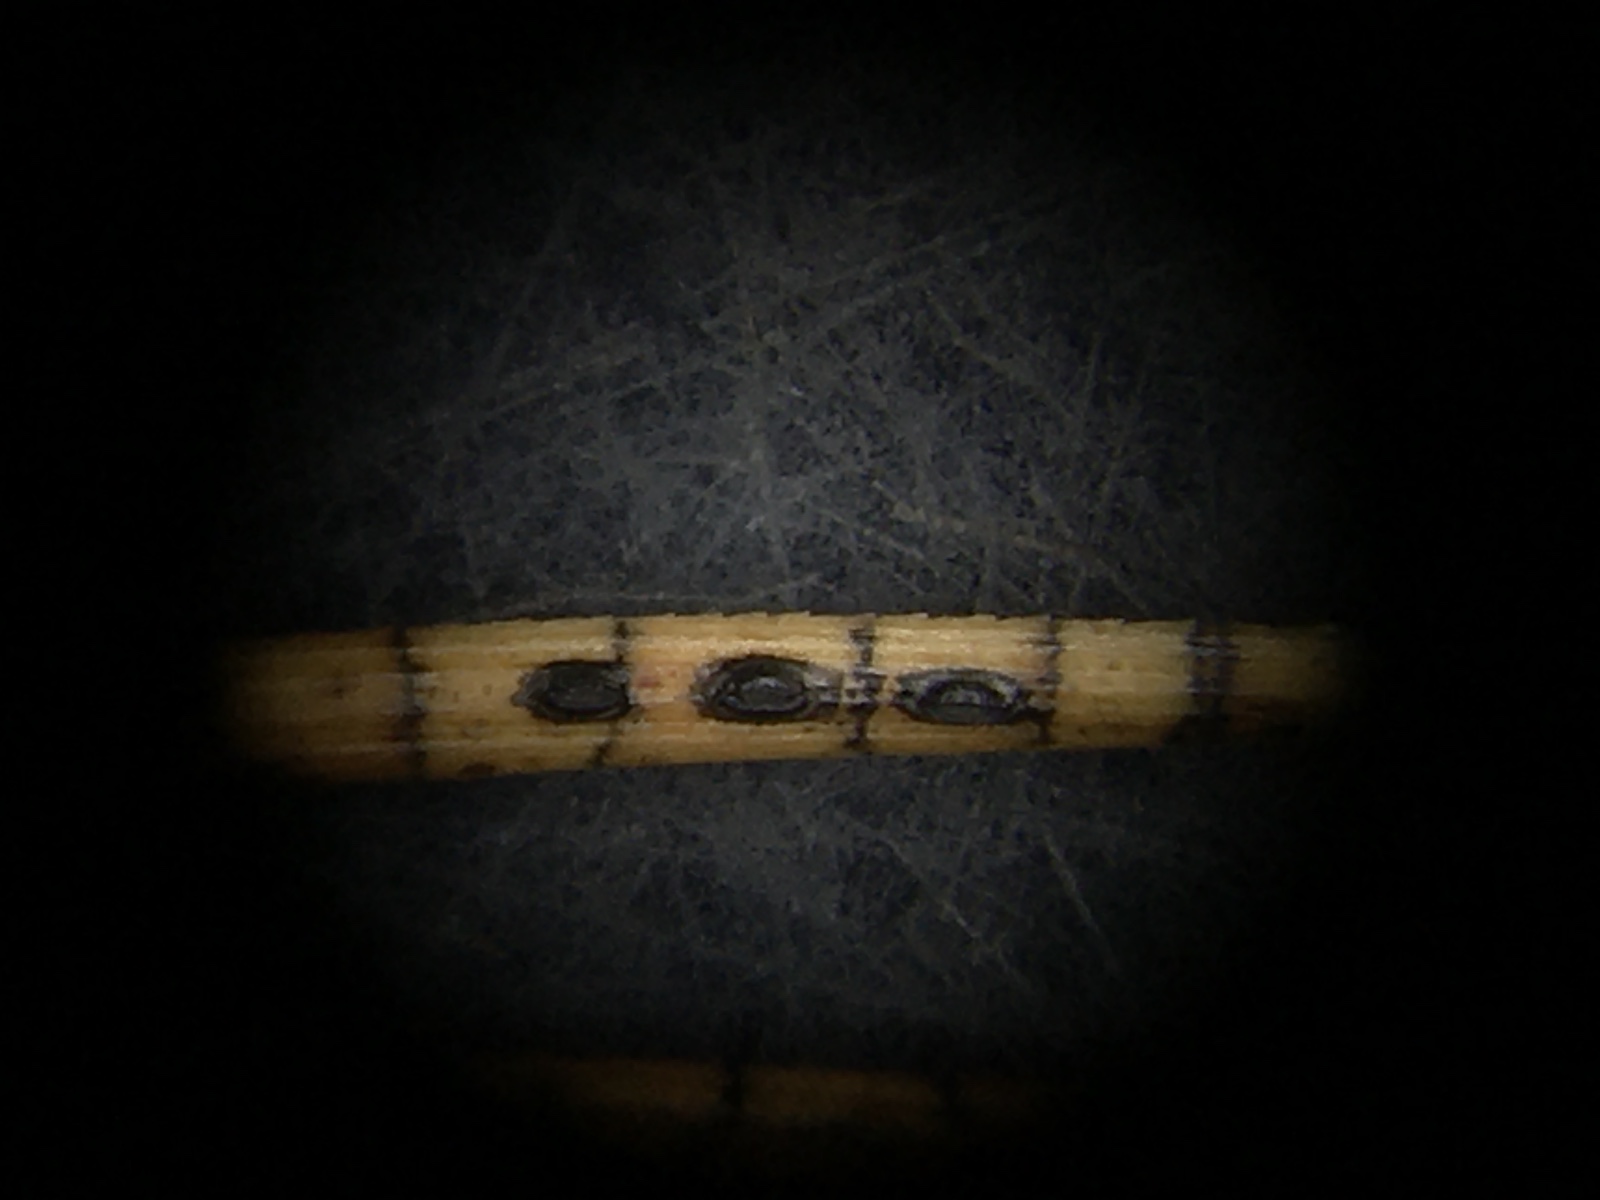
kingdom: Fungi
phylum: Ascomycota
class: Leotiomycetes
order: Rhytismatales
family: Rhytismataceae
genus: Lophodermium
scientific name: Lophodermium pinastri
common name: fyrre-fureplet
